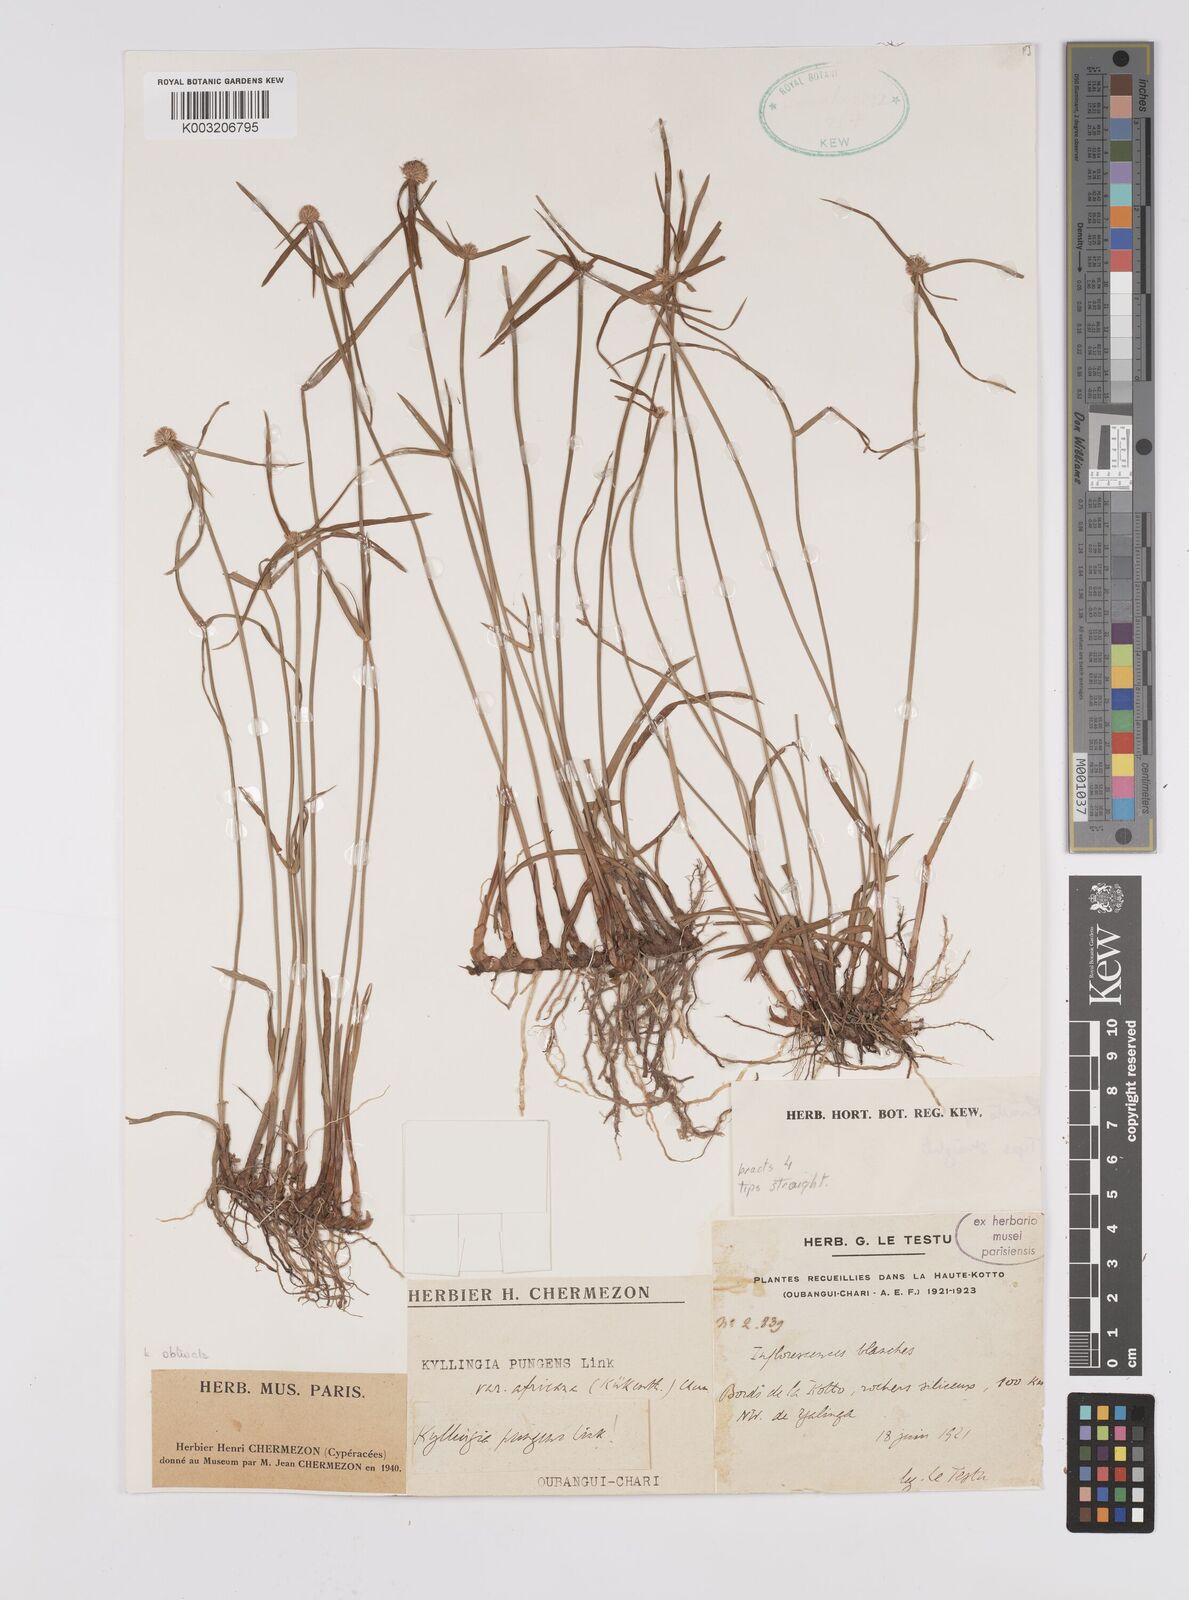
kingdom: Plantae
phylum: Tracheophyta
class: Liliopsida
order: Poales
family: Cyperaceae
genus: Cyperus
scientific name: Cyperus
